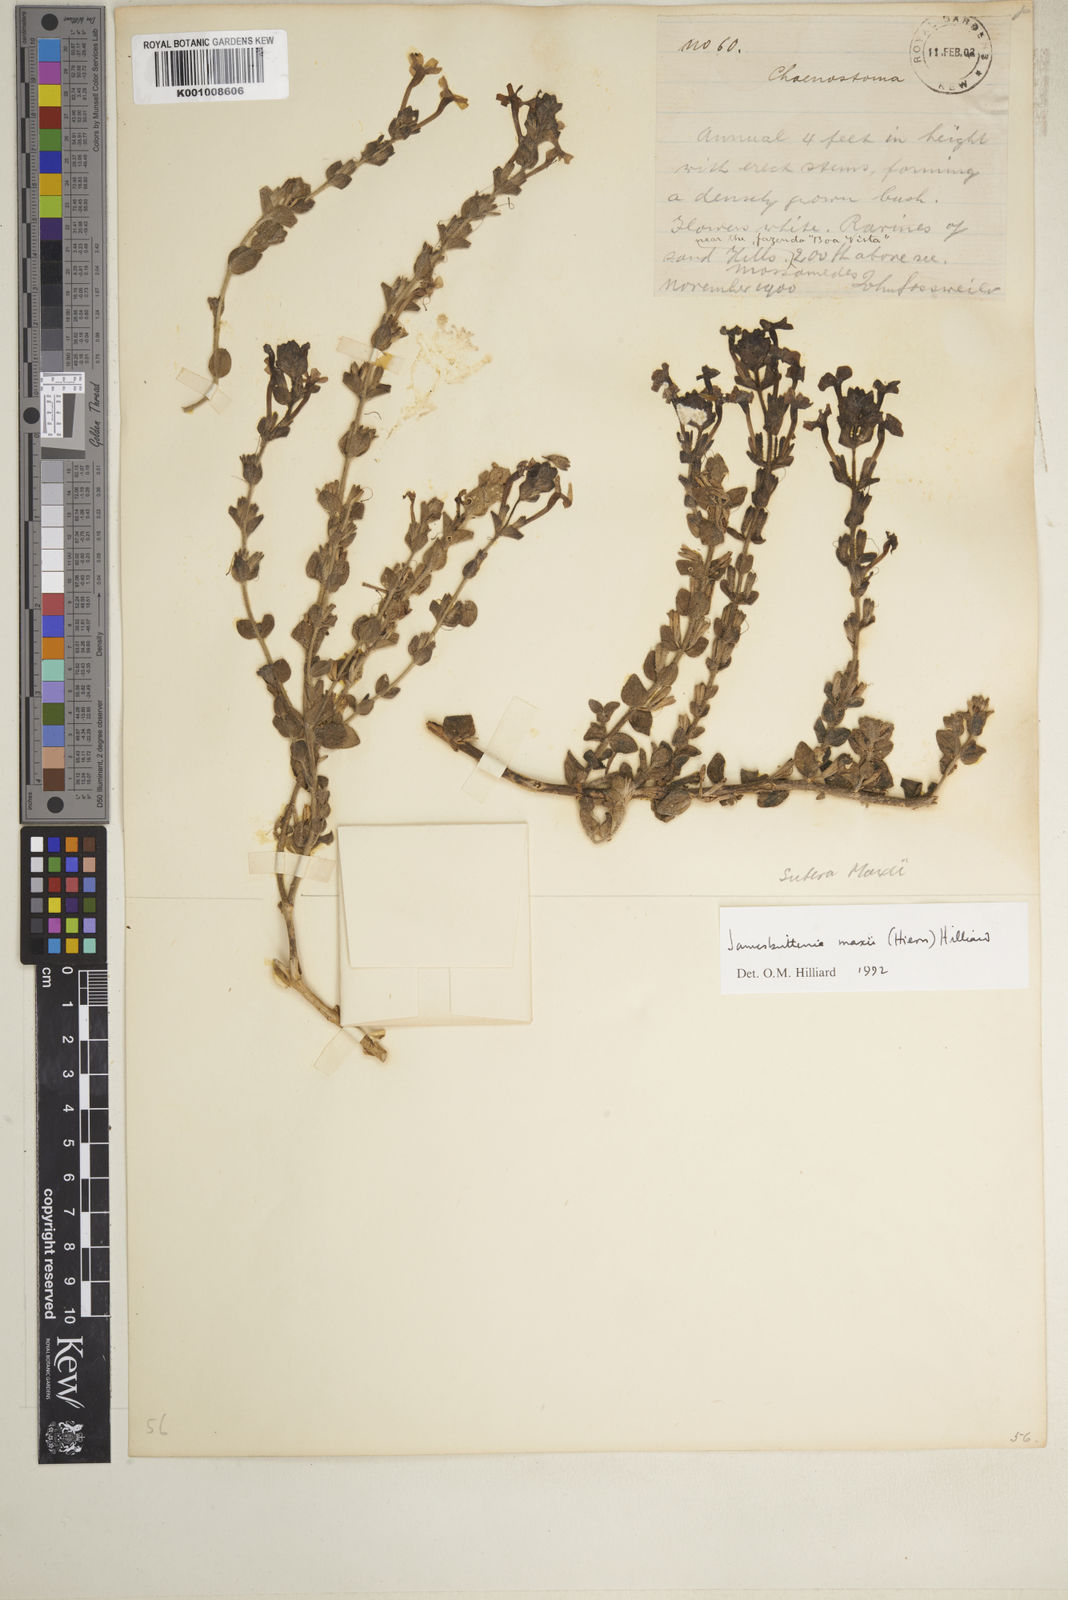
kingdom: Plantae
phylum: Tracheophyta
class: Magnoliopsida
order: Lamiales
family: Scrophulariaceae
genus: Jamesbrittenia
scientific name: Jamesbrittenia maxii
